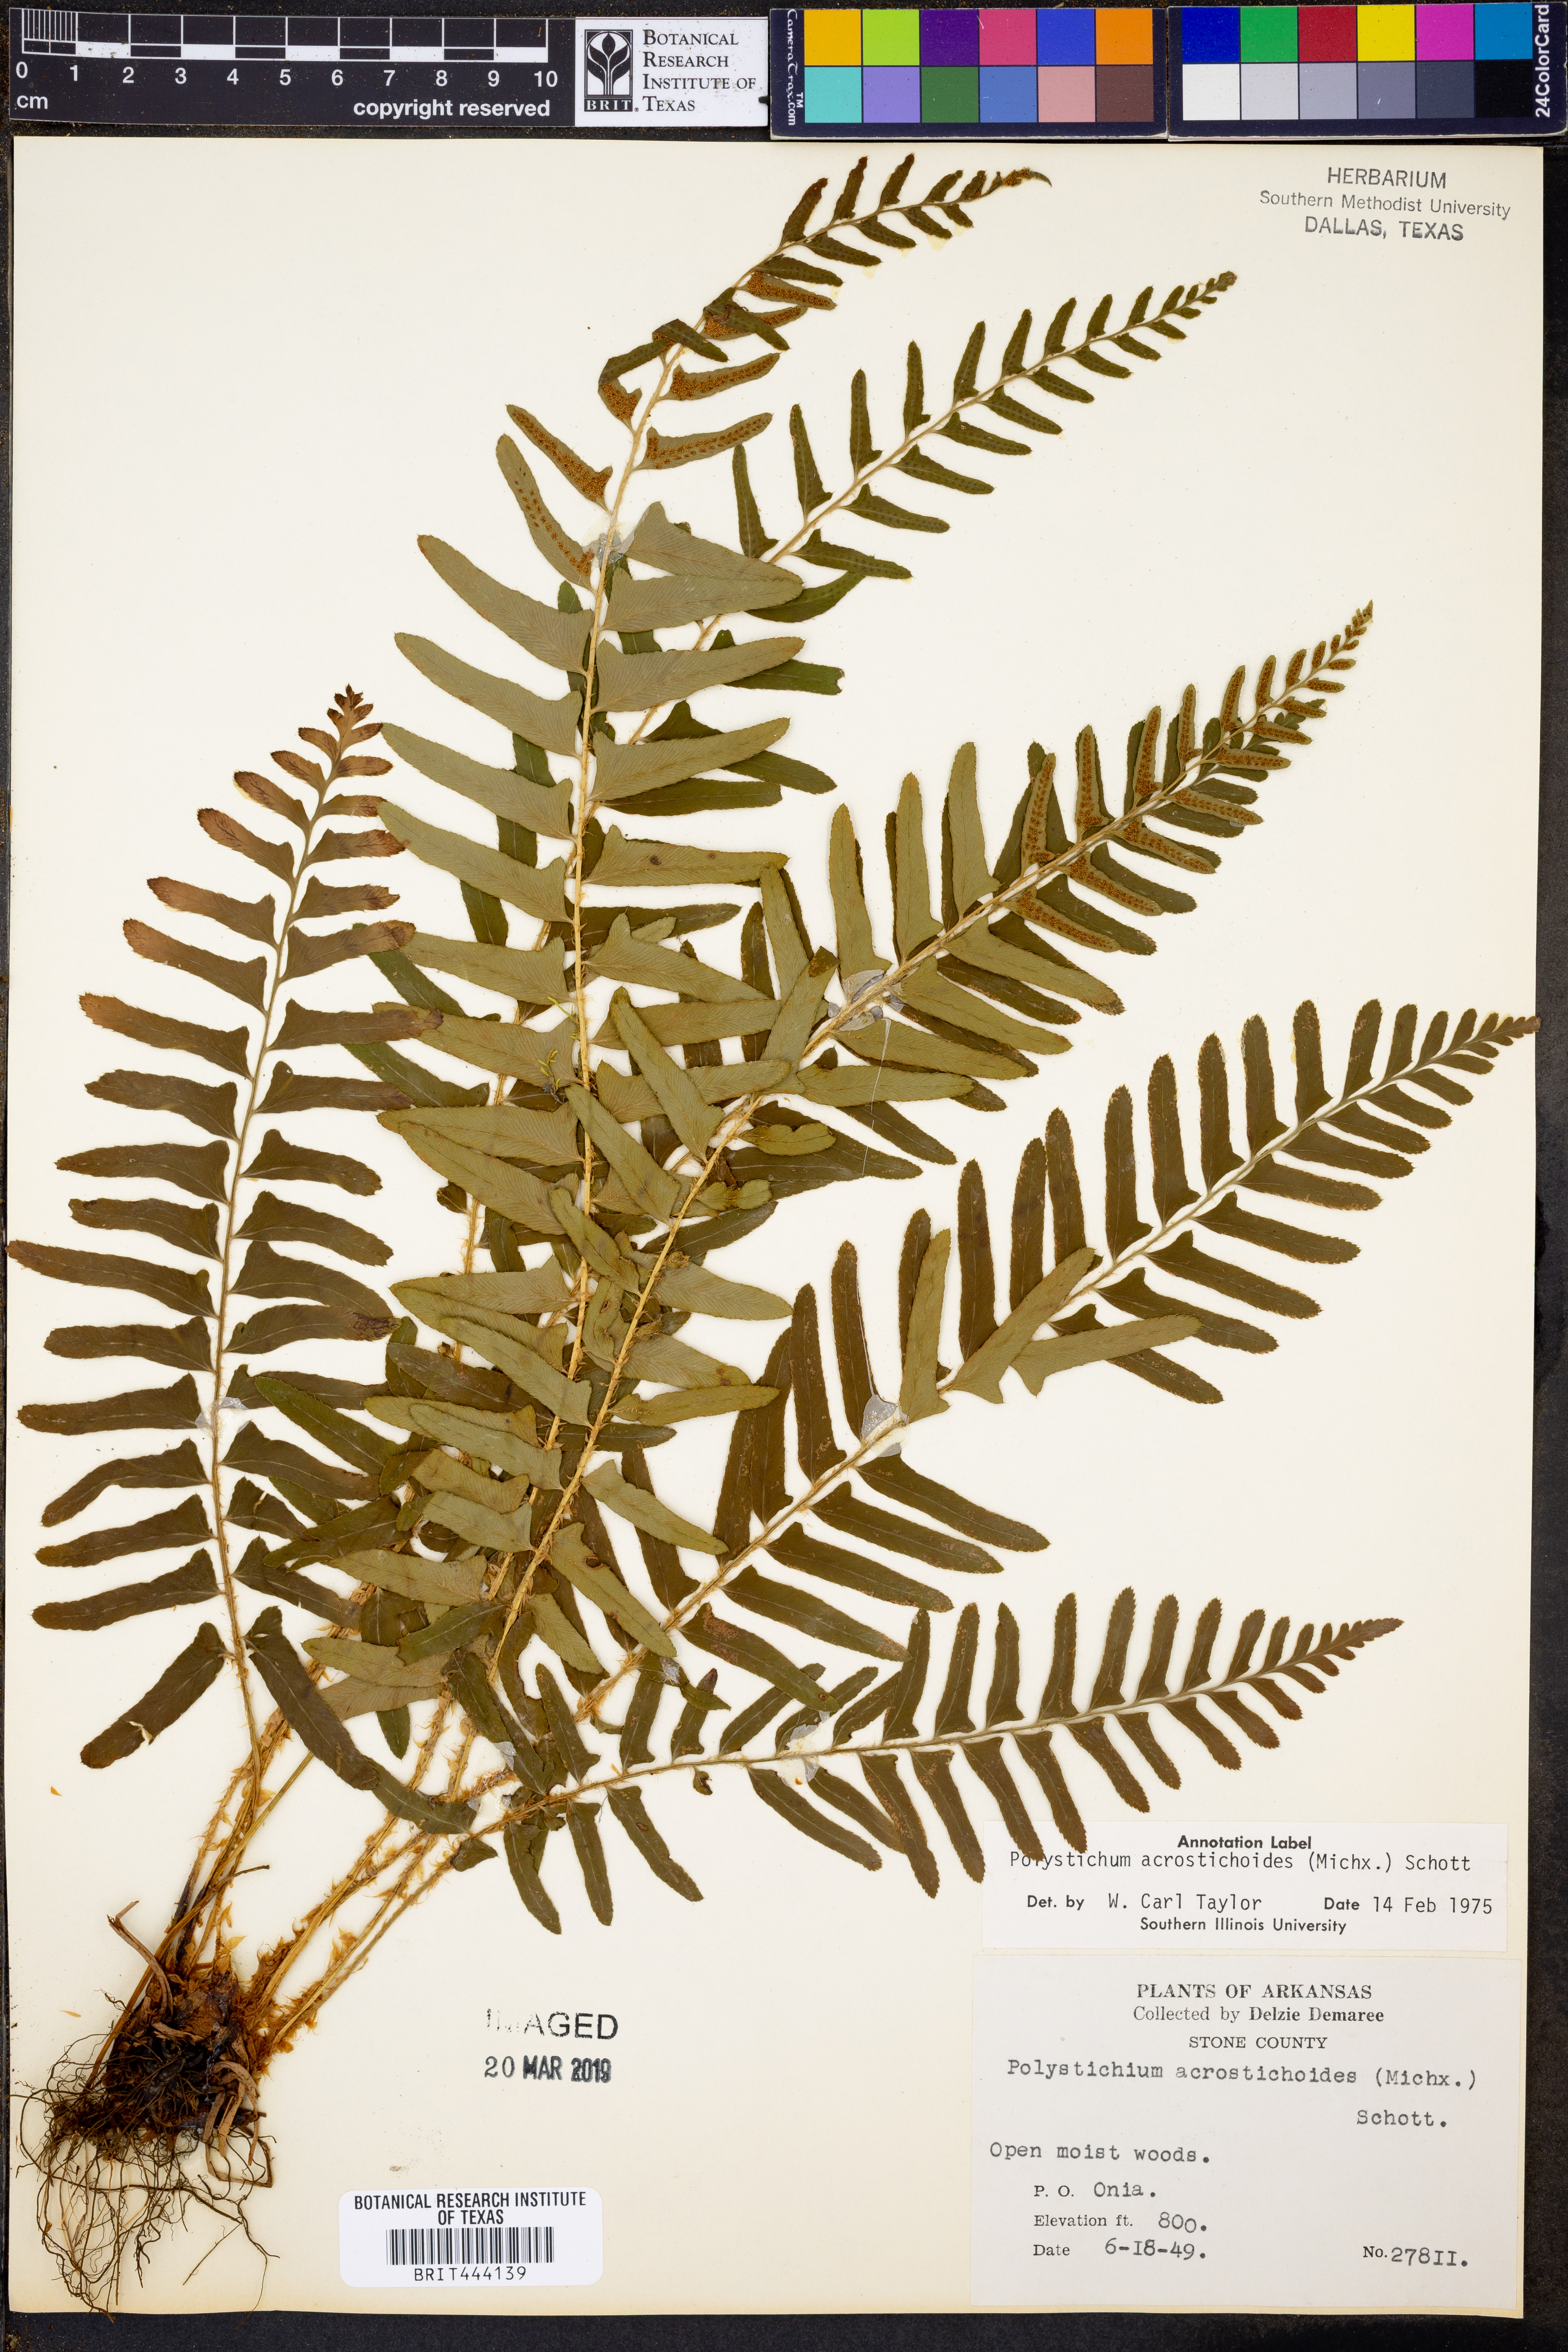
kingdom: Plantae
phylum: Tracheophyta
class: Polypodiopsida
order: Polypodiales
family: Dryopteridaceae
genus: Polystichum
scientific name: Polystichum acrostichoides
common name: Christmas fern
